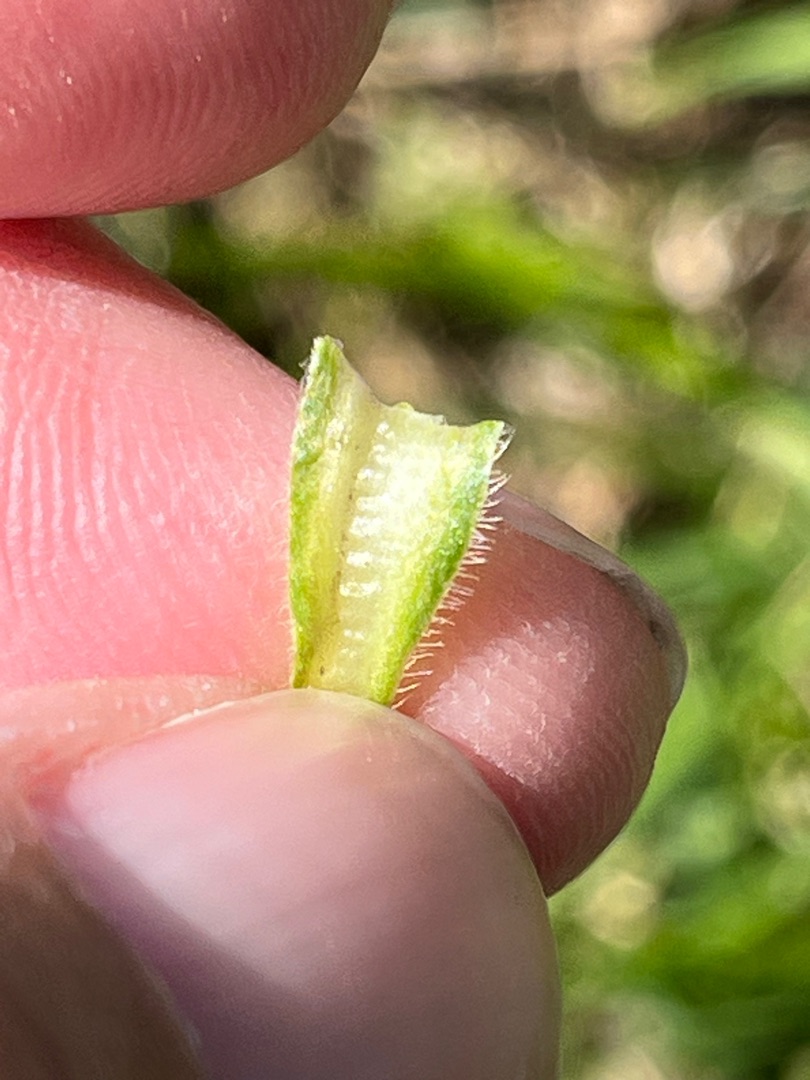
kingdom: Plantae
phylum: Tracheophyta
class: Magnoliopsida
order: Brassicales
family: Brassicaceae
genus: Barbarea
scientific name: Barbarea intermedia
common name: Randhåret vinterkarse
